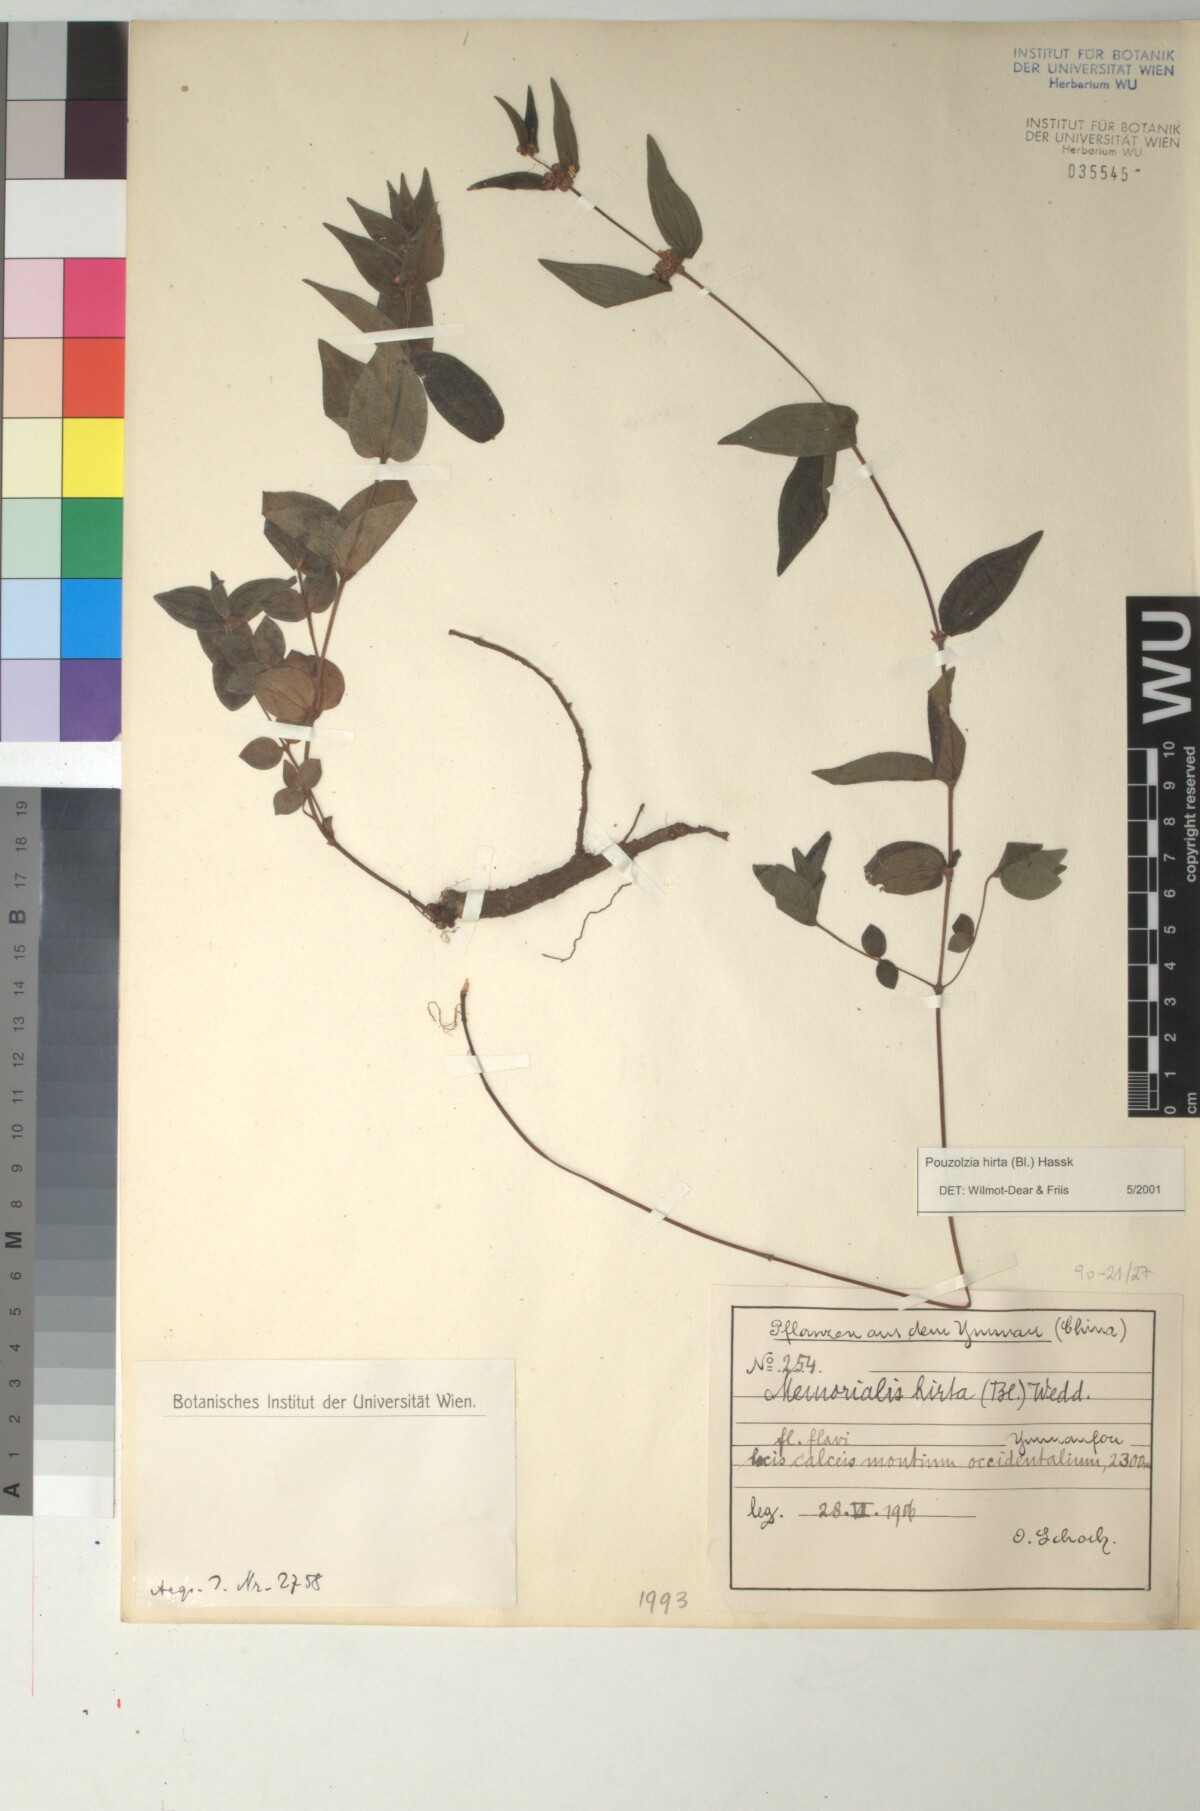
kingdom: Plantae
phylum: Tracheophyta
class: Magnoliopsida
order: Rosales
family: Urticaceae
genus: Gonostegia
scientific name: Gonostegia triandra
